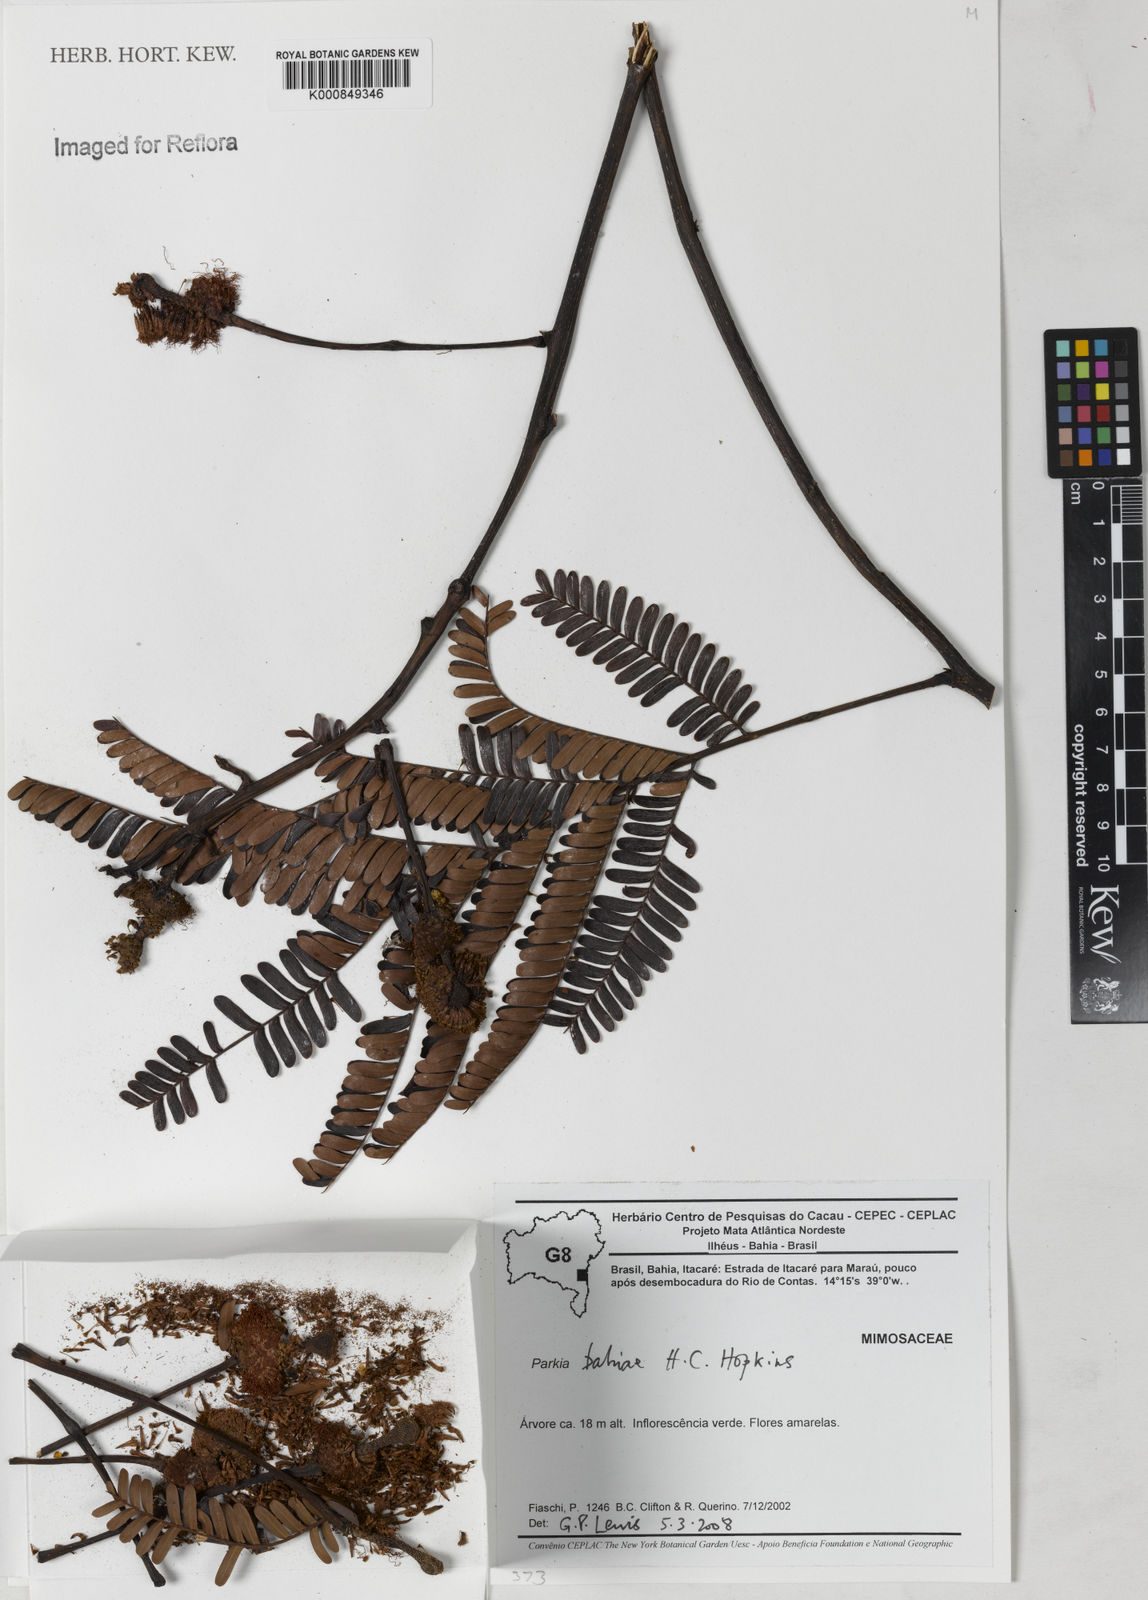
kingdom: Plantae
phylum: Tracheophyta
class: Magnoliopsida
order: Fabales
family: Fabaceae
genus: Parkia
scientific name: Parkia bahiae
